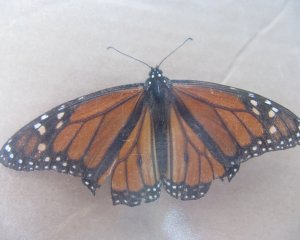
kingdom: Animalia
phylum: Arthropoda
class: Insecta
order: Lepidoptera
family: Nymphalidae
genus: Danaus
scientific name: Danaus plexippus
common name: Monarch
